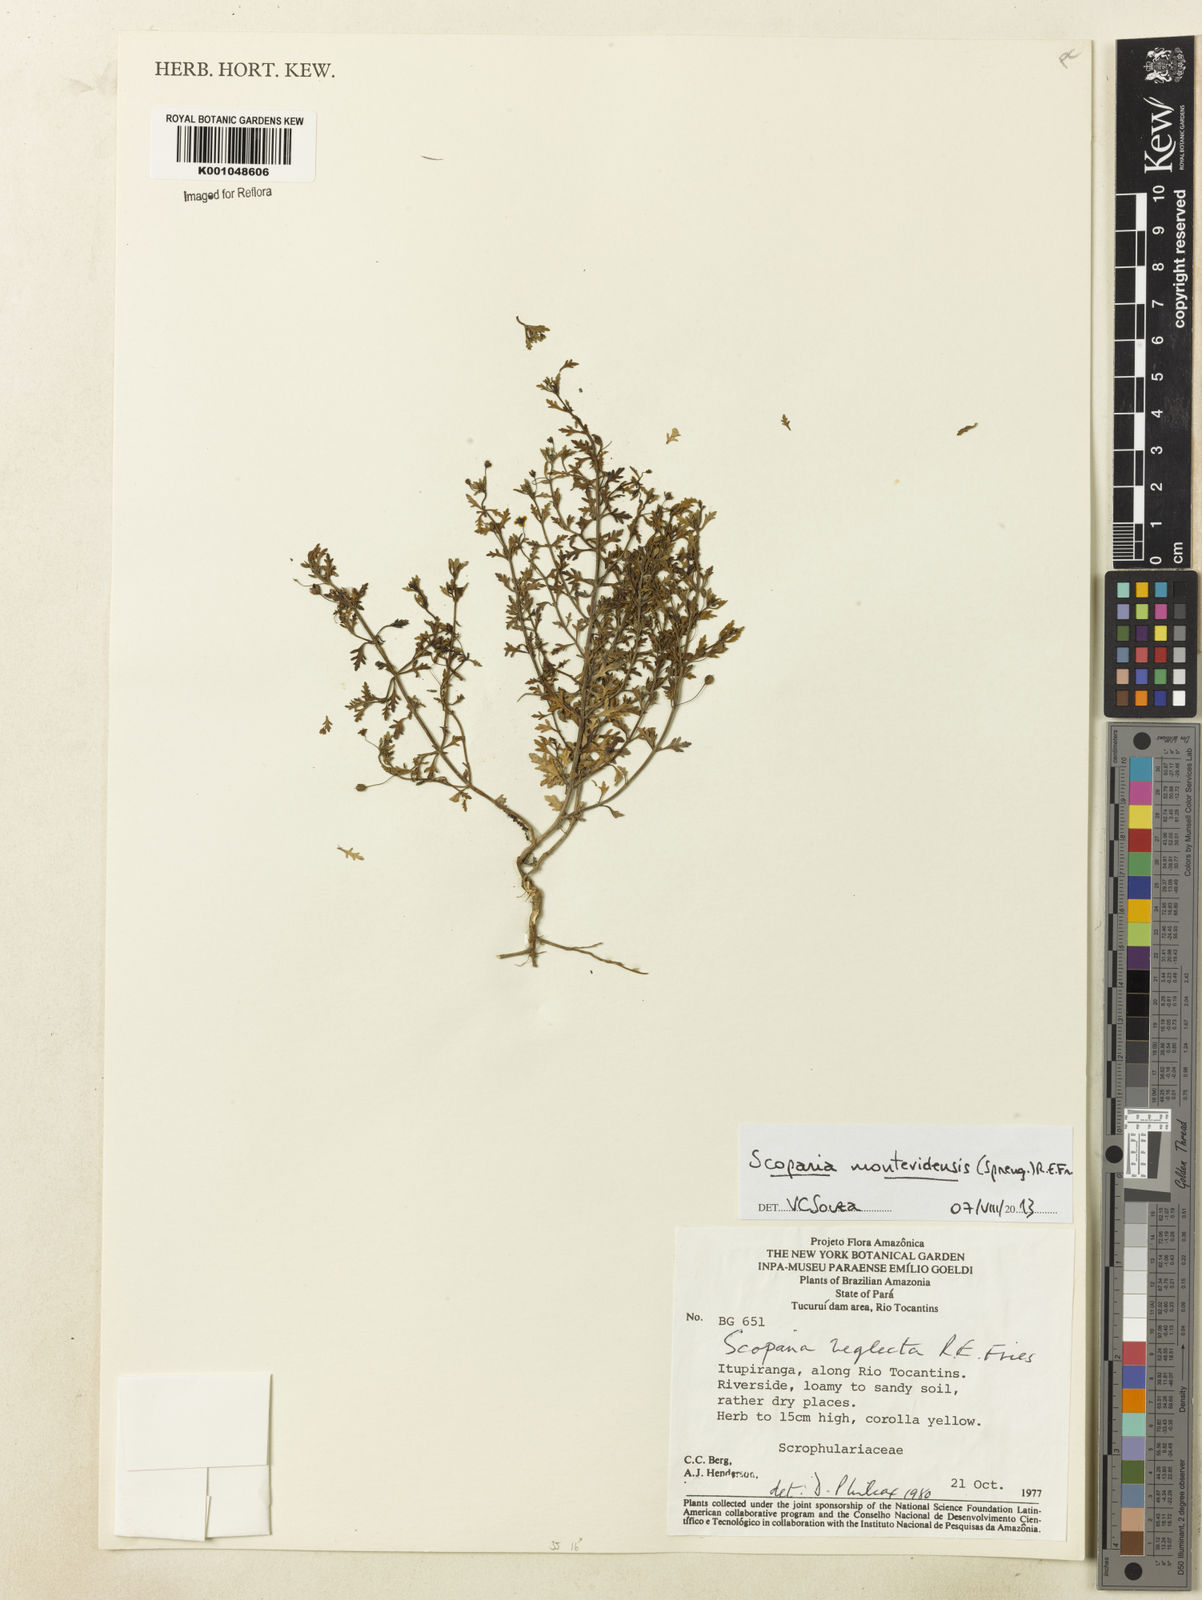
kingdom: Plantae
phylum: Tracheophyta
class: Magnoliopsida
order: Lamiales
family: Plantaginaceae
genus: Scoparia
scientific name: Scoparia montevidensis
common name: Broomwort
